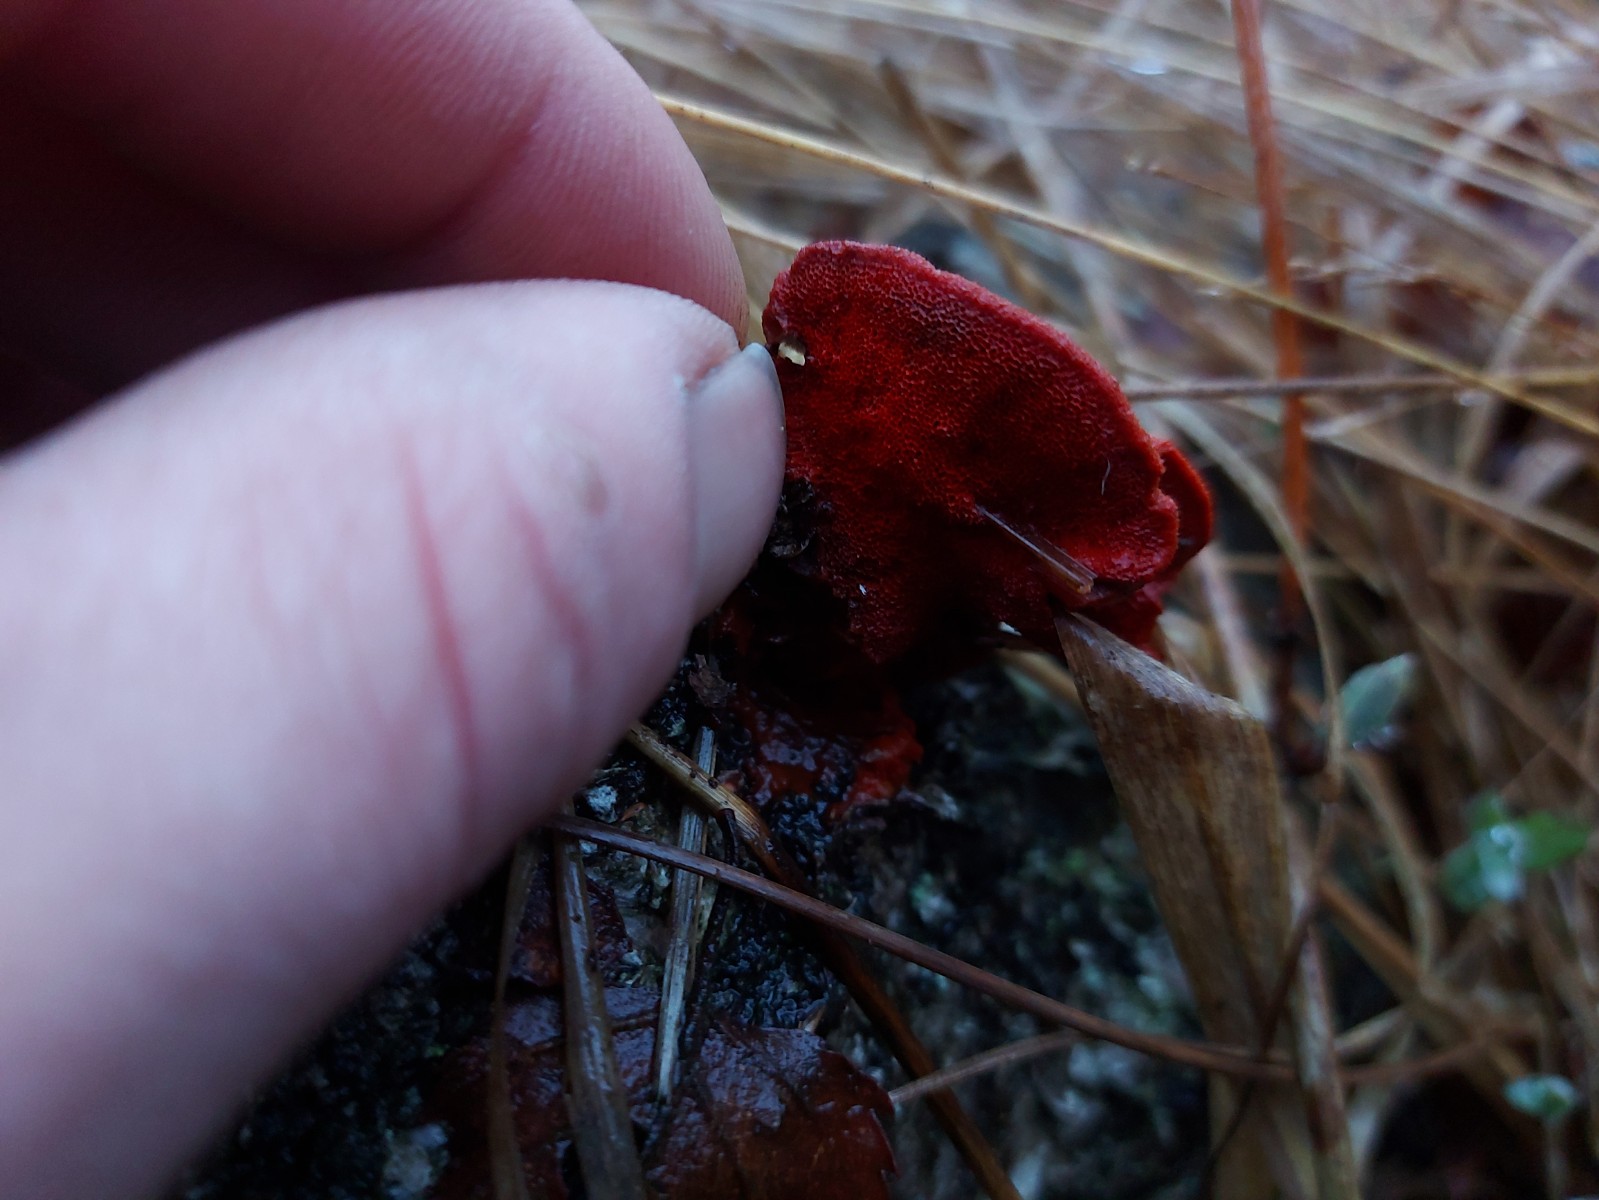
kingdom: Fungi
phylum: Basidiomycota
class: Agaricomycetes
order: Polyporales
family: Polyporaceae
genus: Trametes
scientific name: Trametes cinnabarina
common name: cinnoberporesvamp
